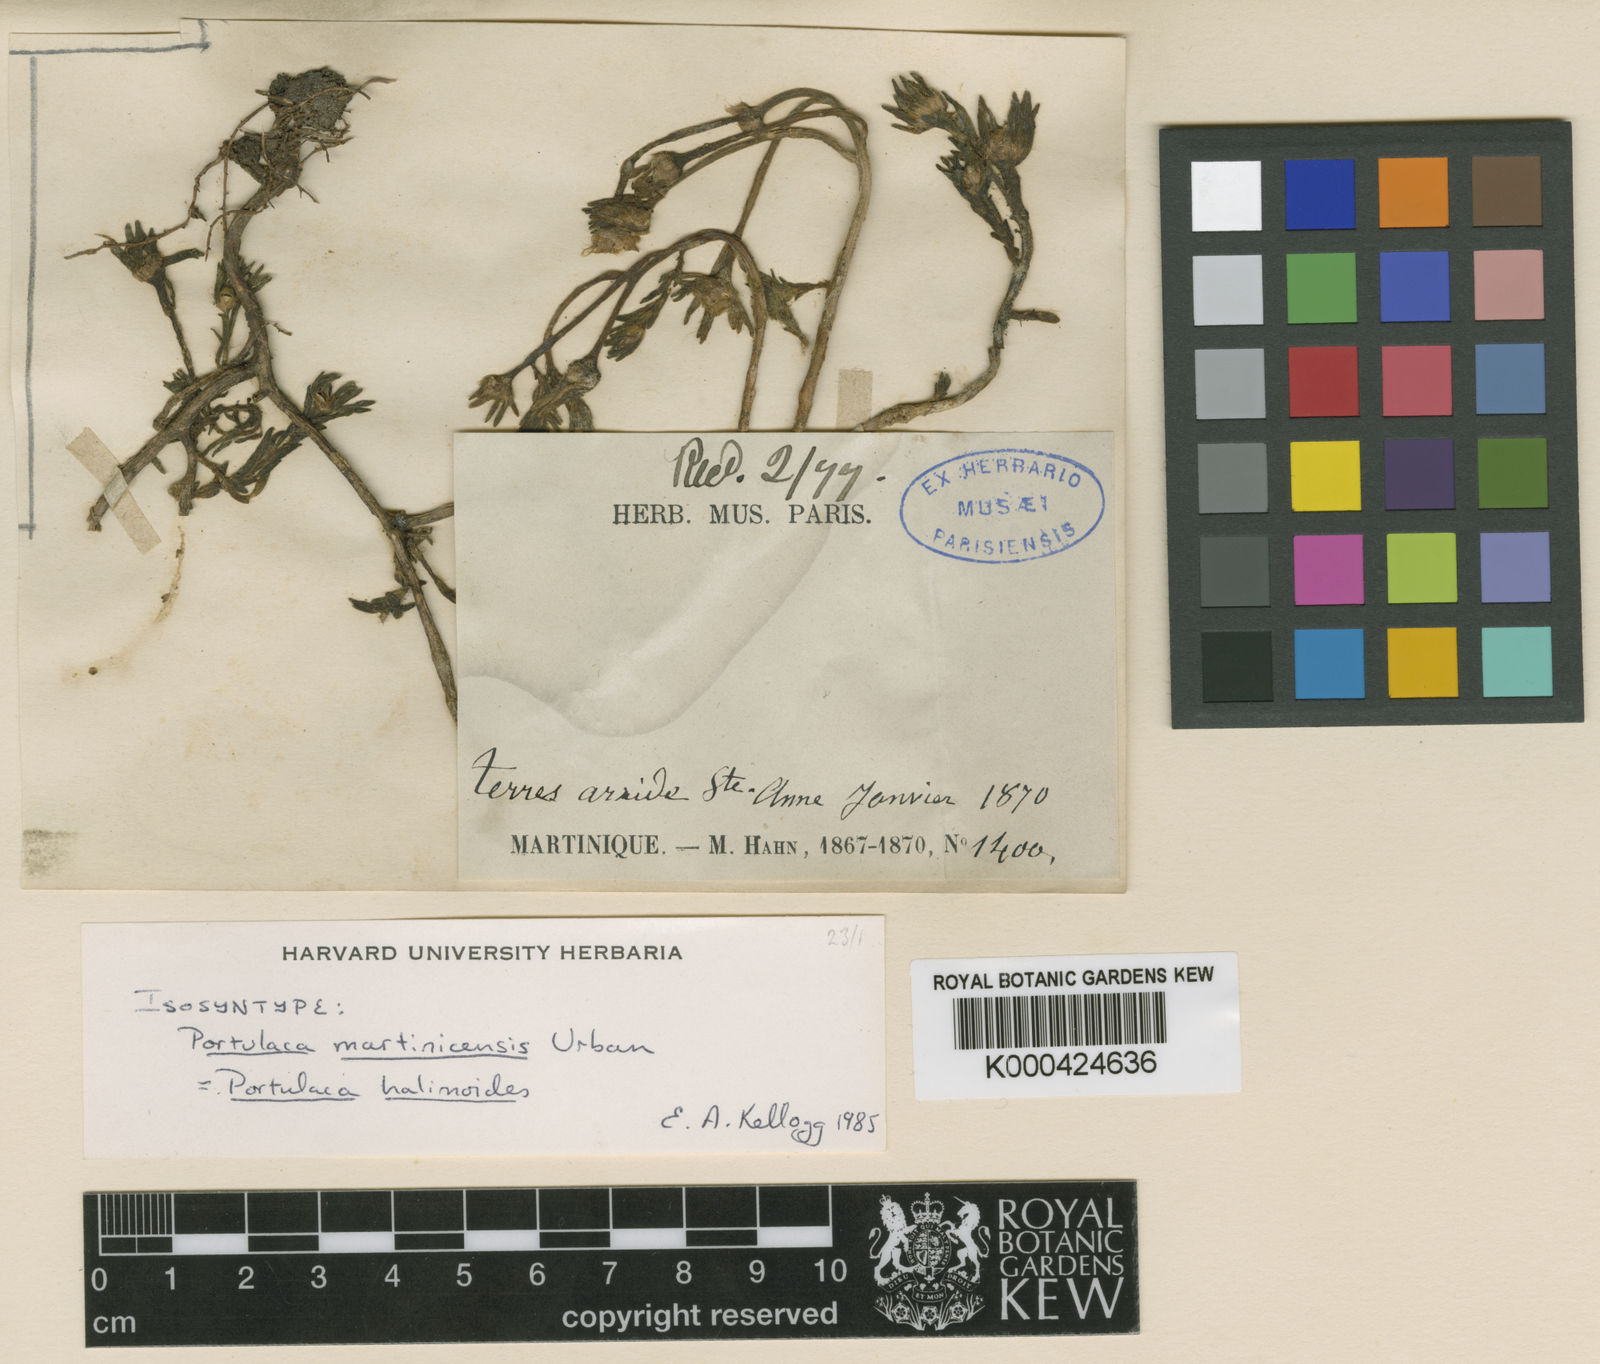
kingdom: Plantae
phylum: Tracheophyta
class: Magnoliopsida
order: Caryophyllales
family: Portulacaceae
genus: Portulaca
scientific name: Portulaca halimoides
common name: Silk cotton purslane
